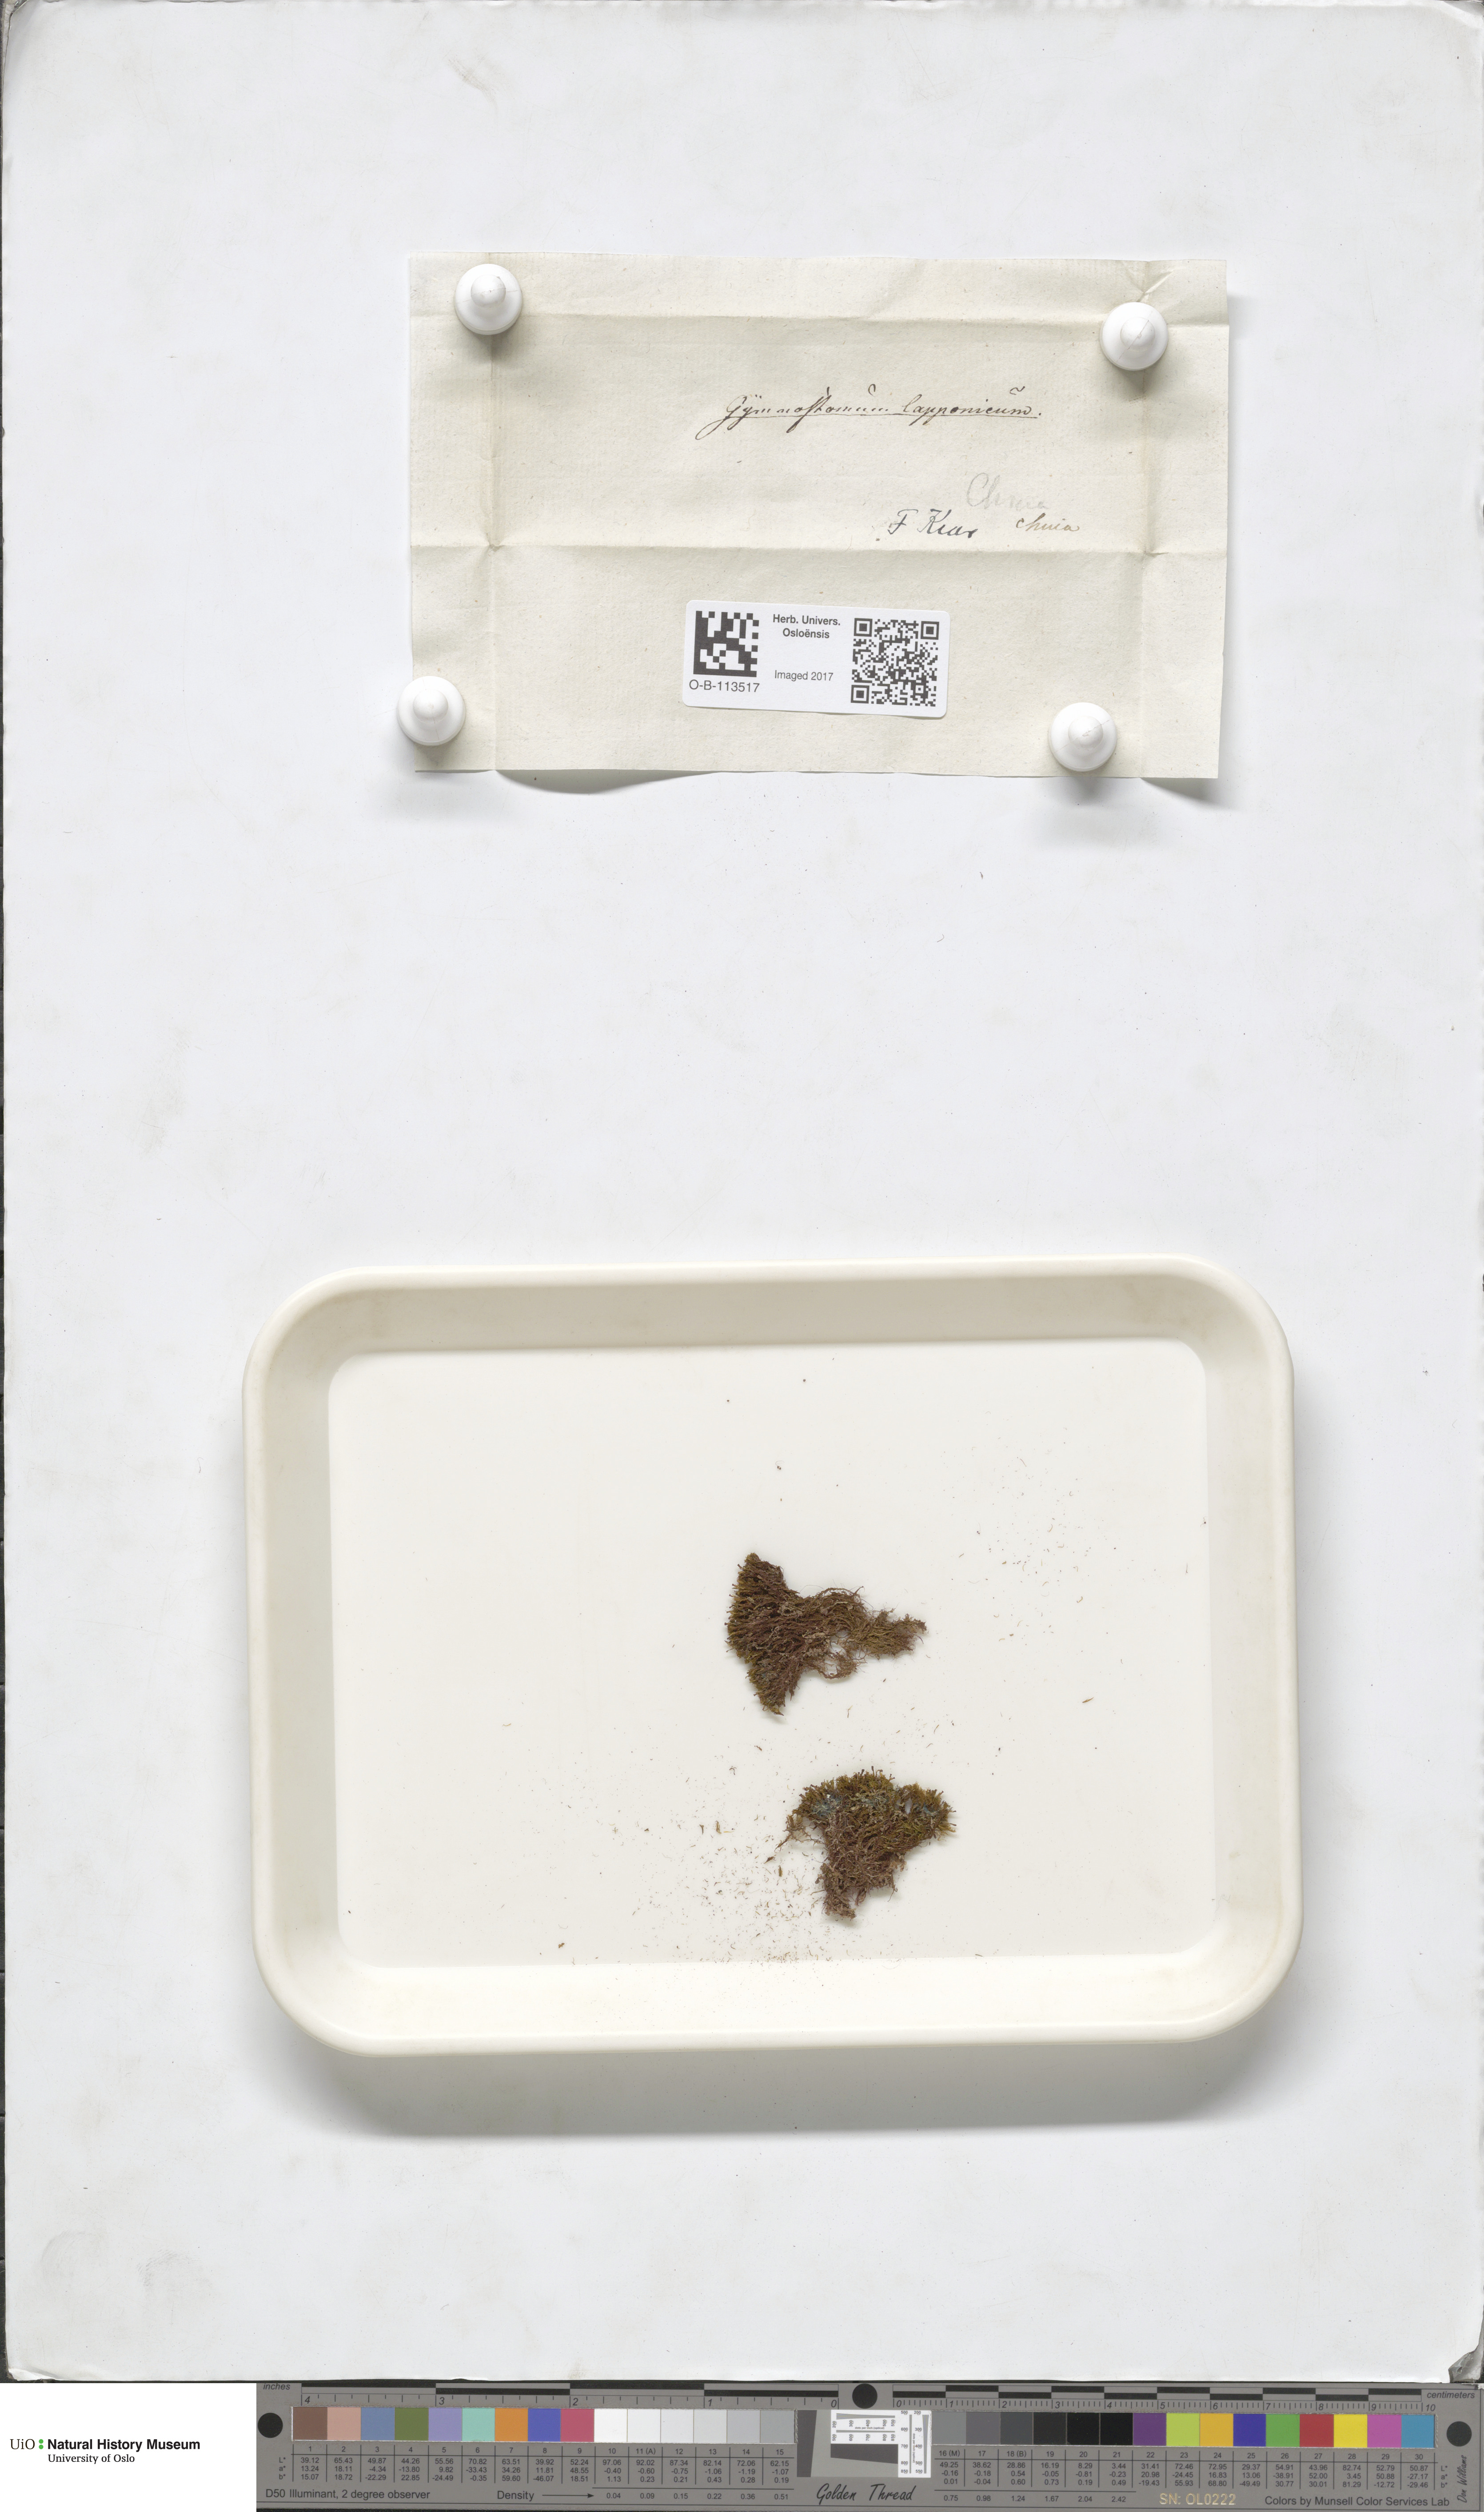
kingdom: Plantae
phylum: Bryophyta
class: Bryopsida
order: Dicranales
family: Amphidiaceae
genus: Amphidium
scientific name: Amphidium lapponicum
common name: Lapland yoke moss
